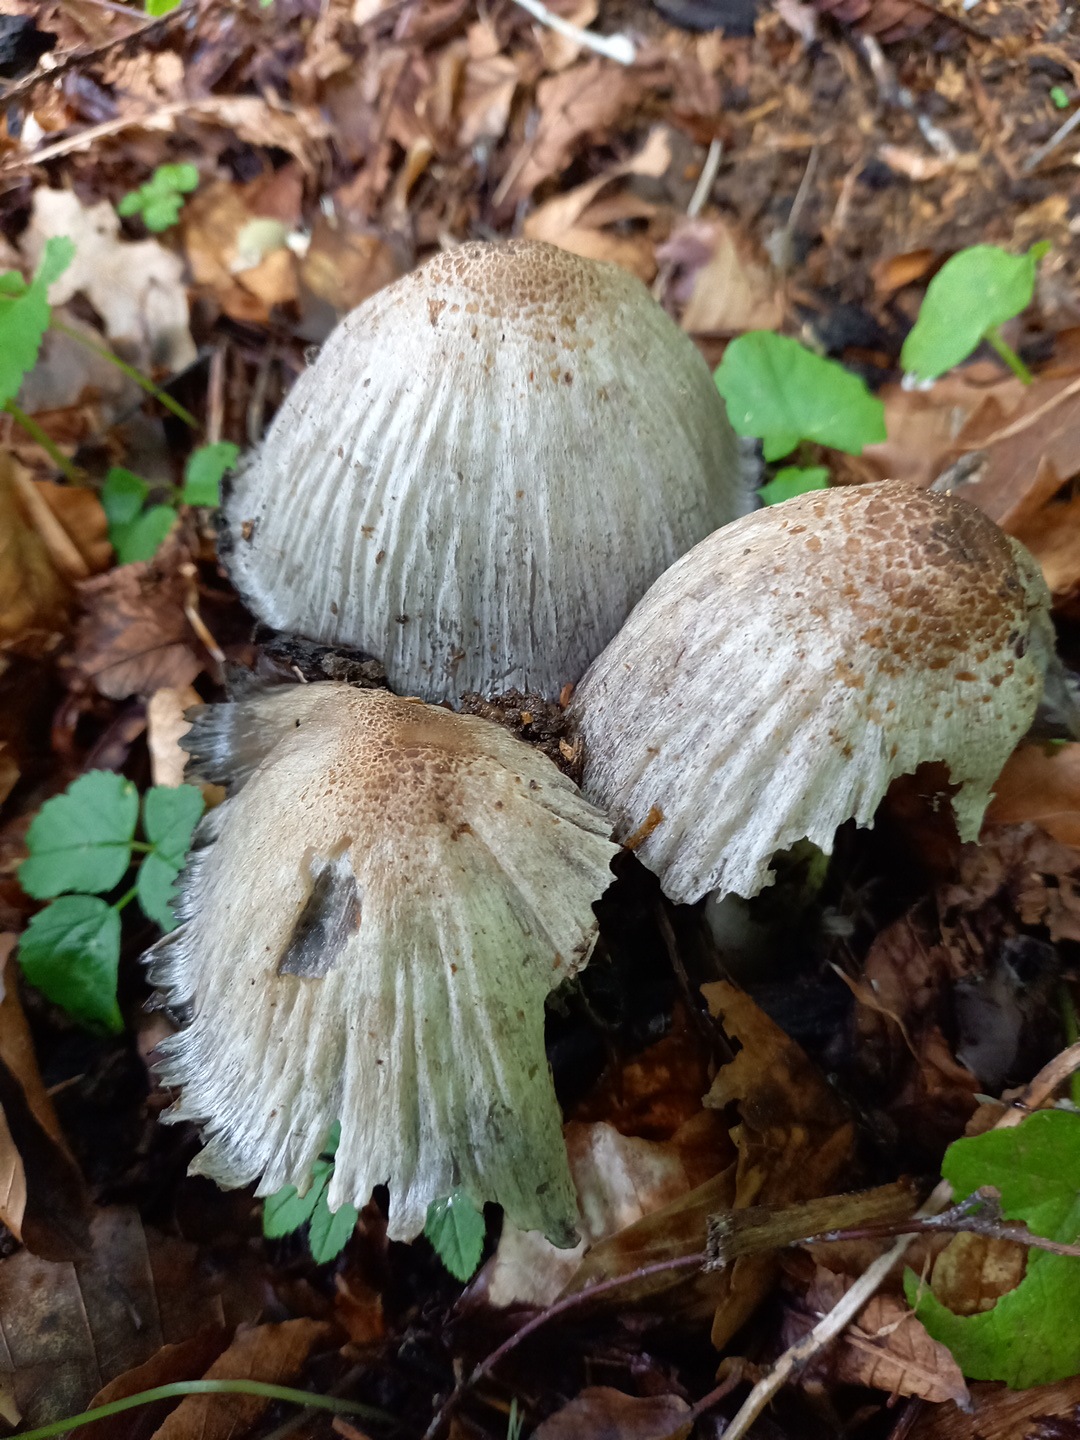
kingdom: Fungi
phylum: Basidiomycota
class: Agaricomycetes
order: Agaricales
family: Psathyrellaceae
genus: Coprinopsis
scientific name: Coprinopsis atramentaria
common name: almindelig blækhat
